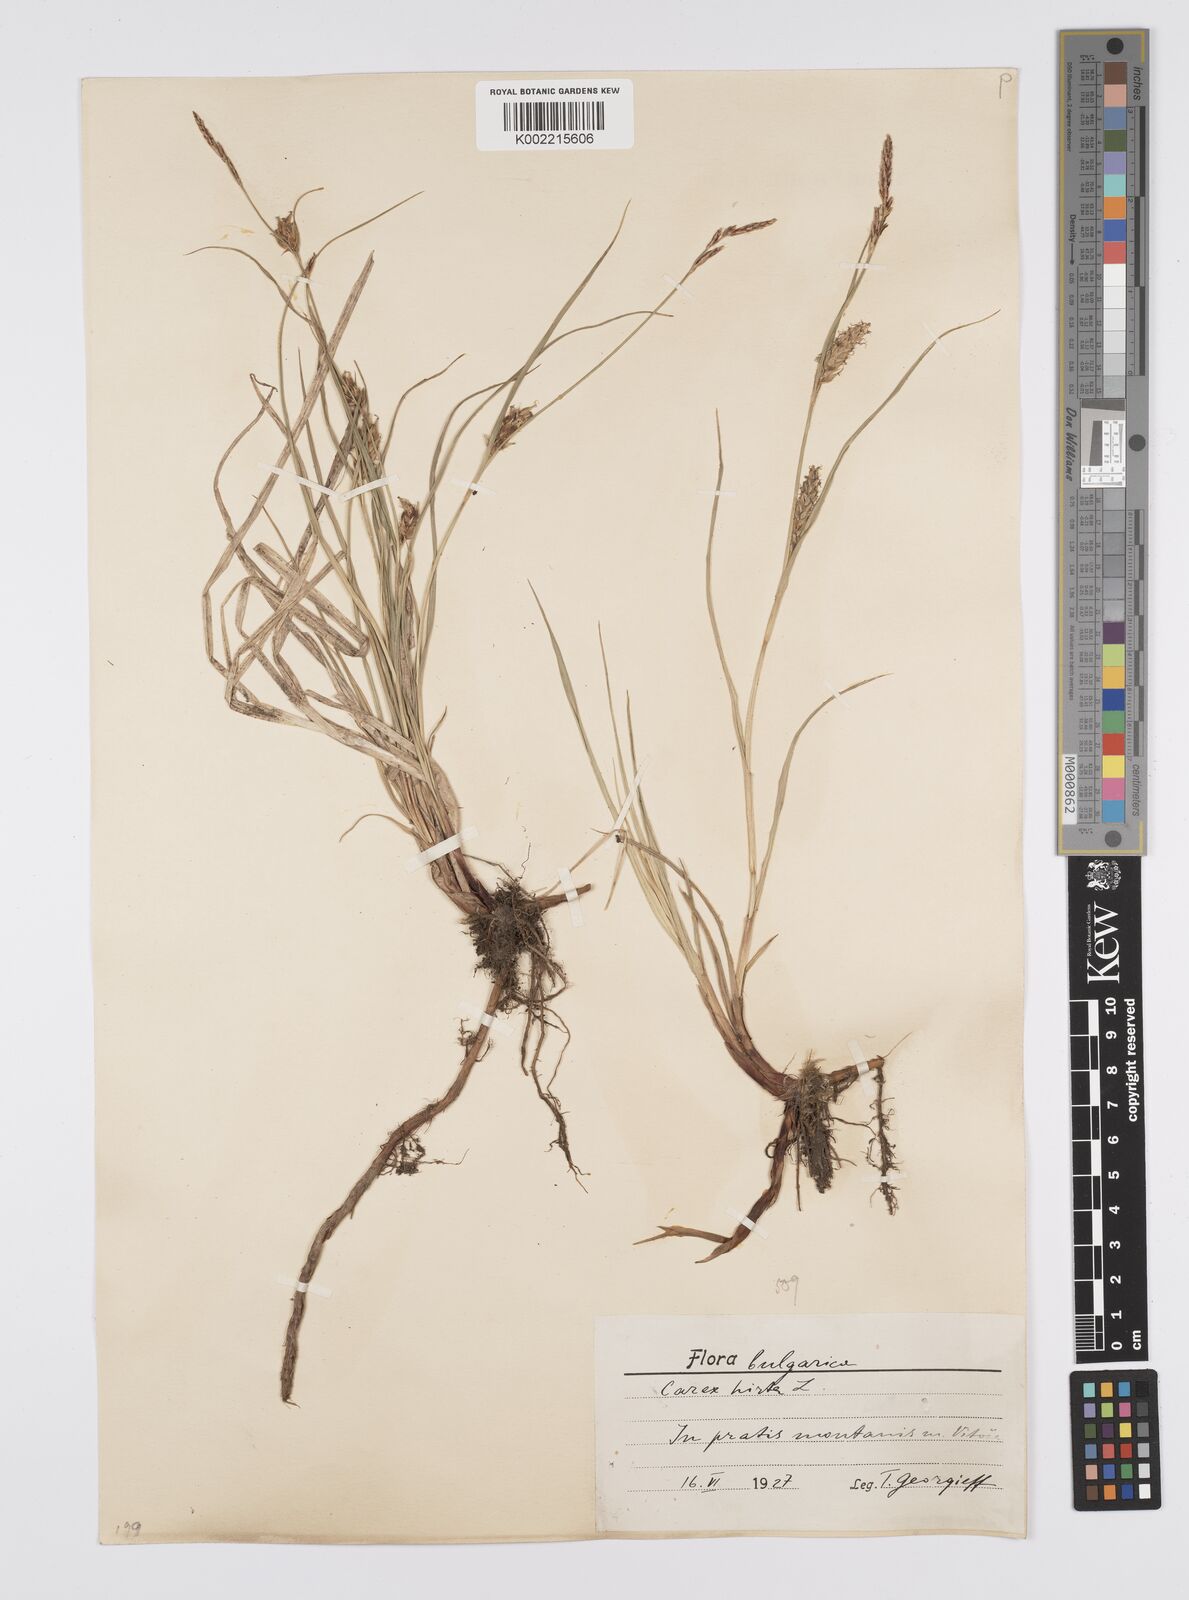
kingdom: Plantae
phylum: Tracheophyta
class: Liliopsida
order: Poales
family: Cyperaceae
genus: Carex
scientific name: Carex hirta
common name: Hairy sedge
